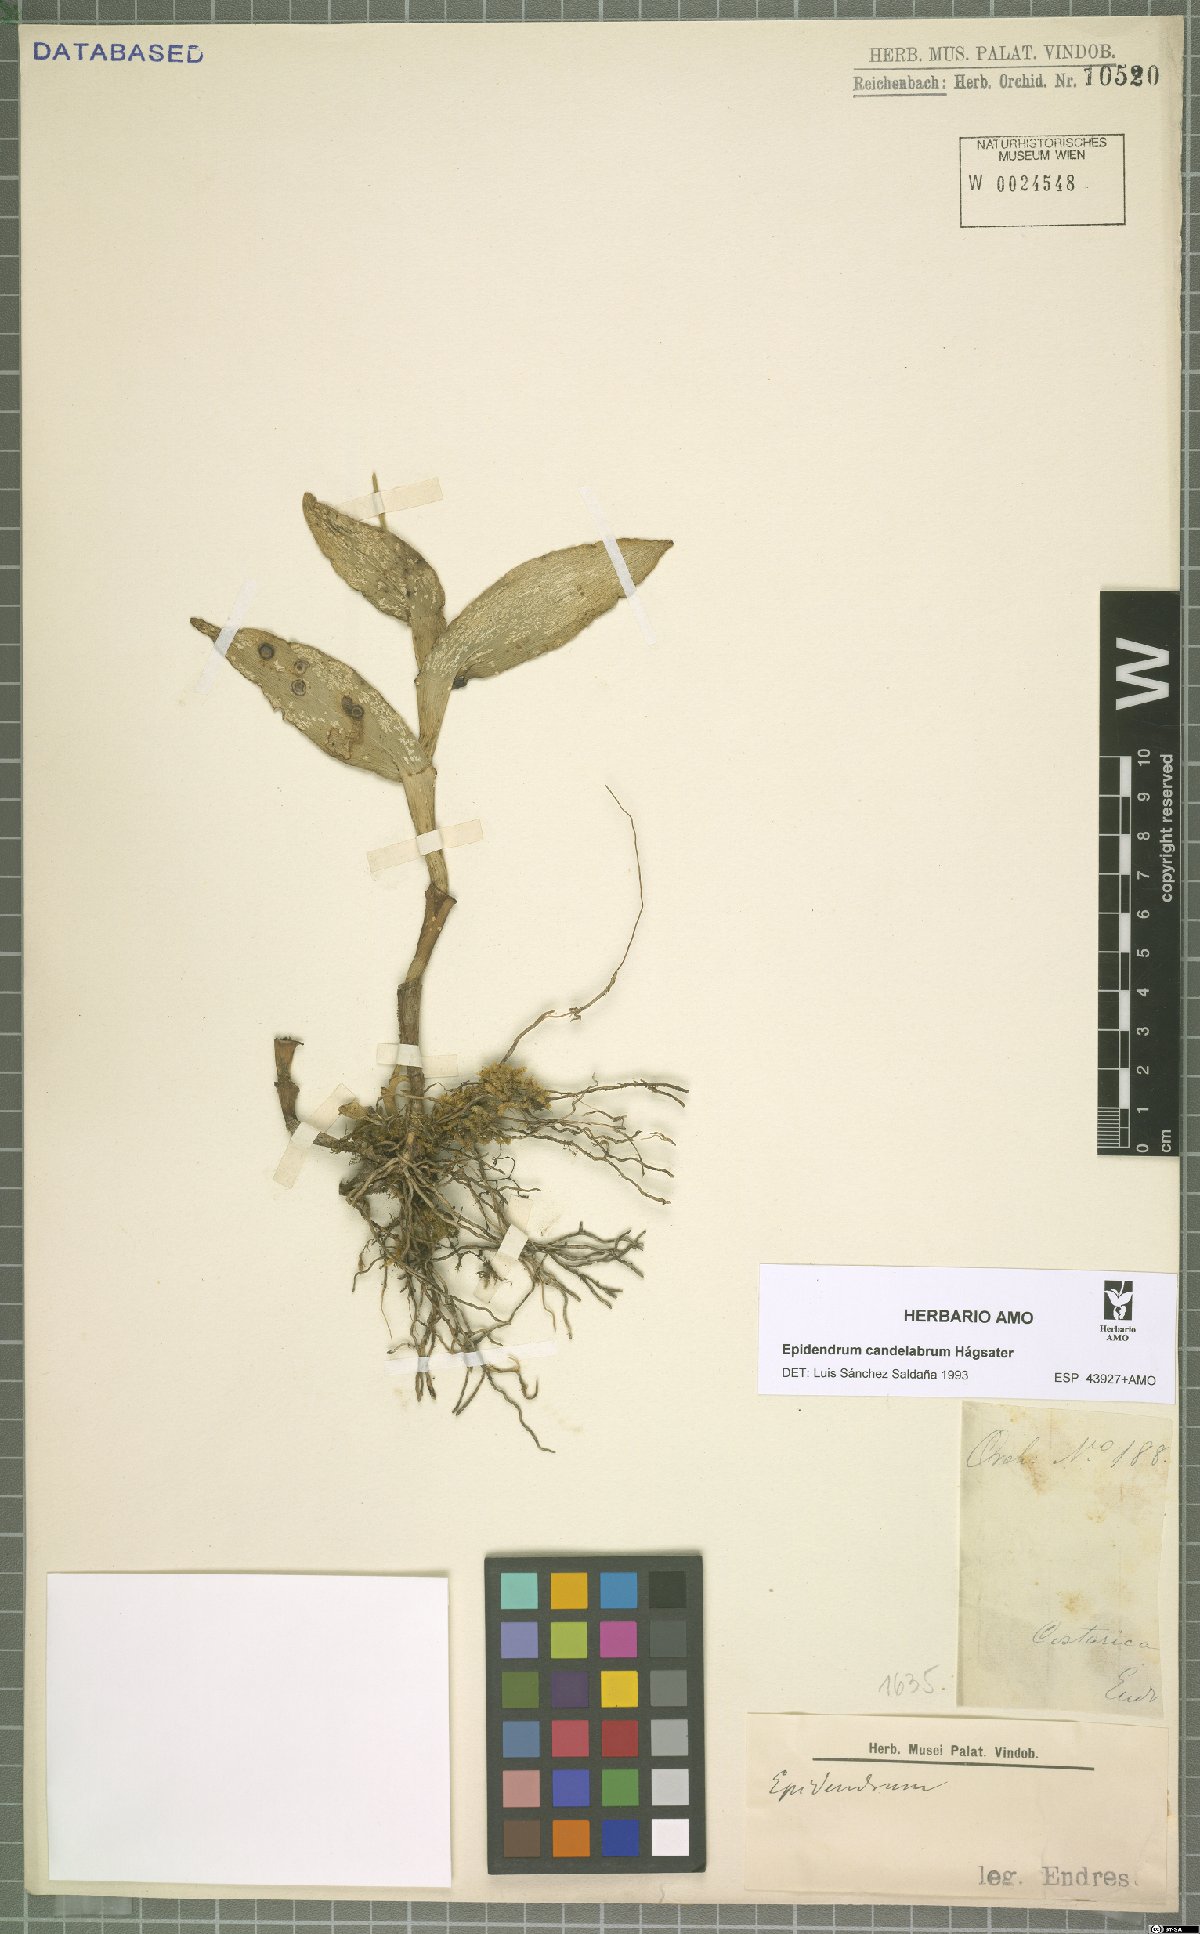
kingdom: Plantae
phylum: Tracheophyta
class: Liliopsida
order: Asparagales
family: Orchidaceae
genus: Epidendrum
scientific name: Epidendrum candelabrum
